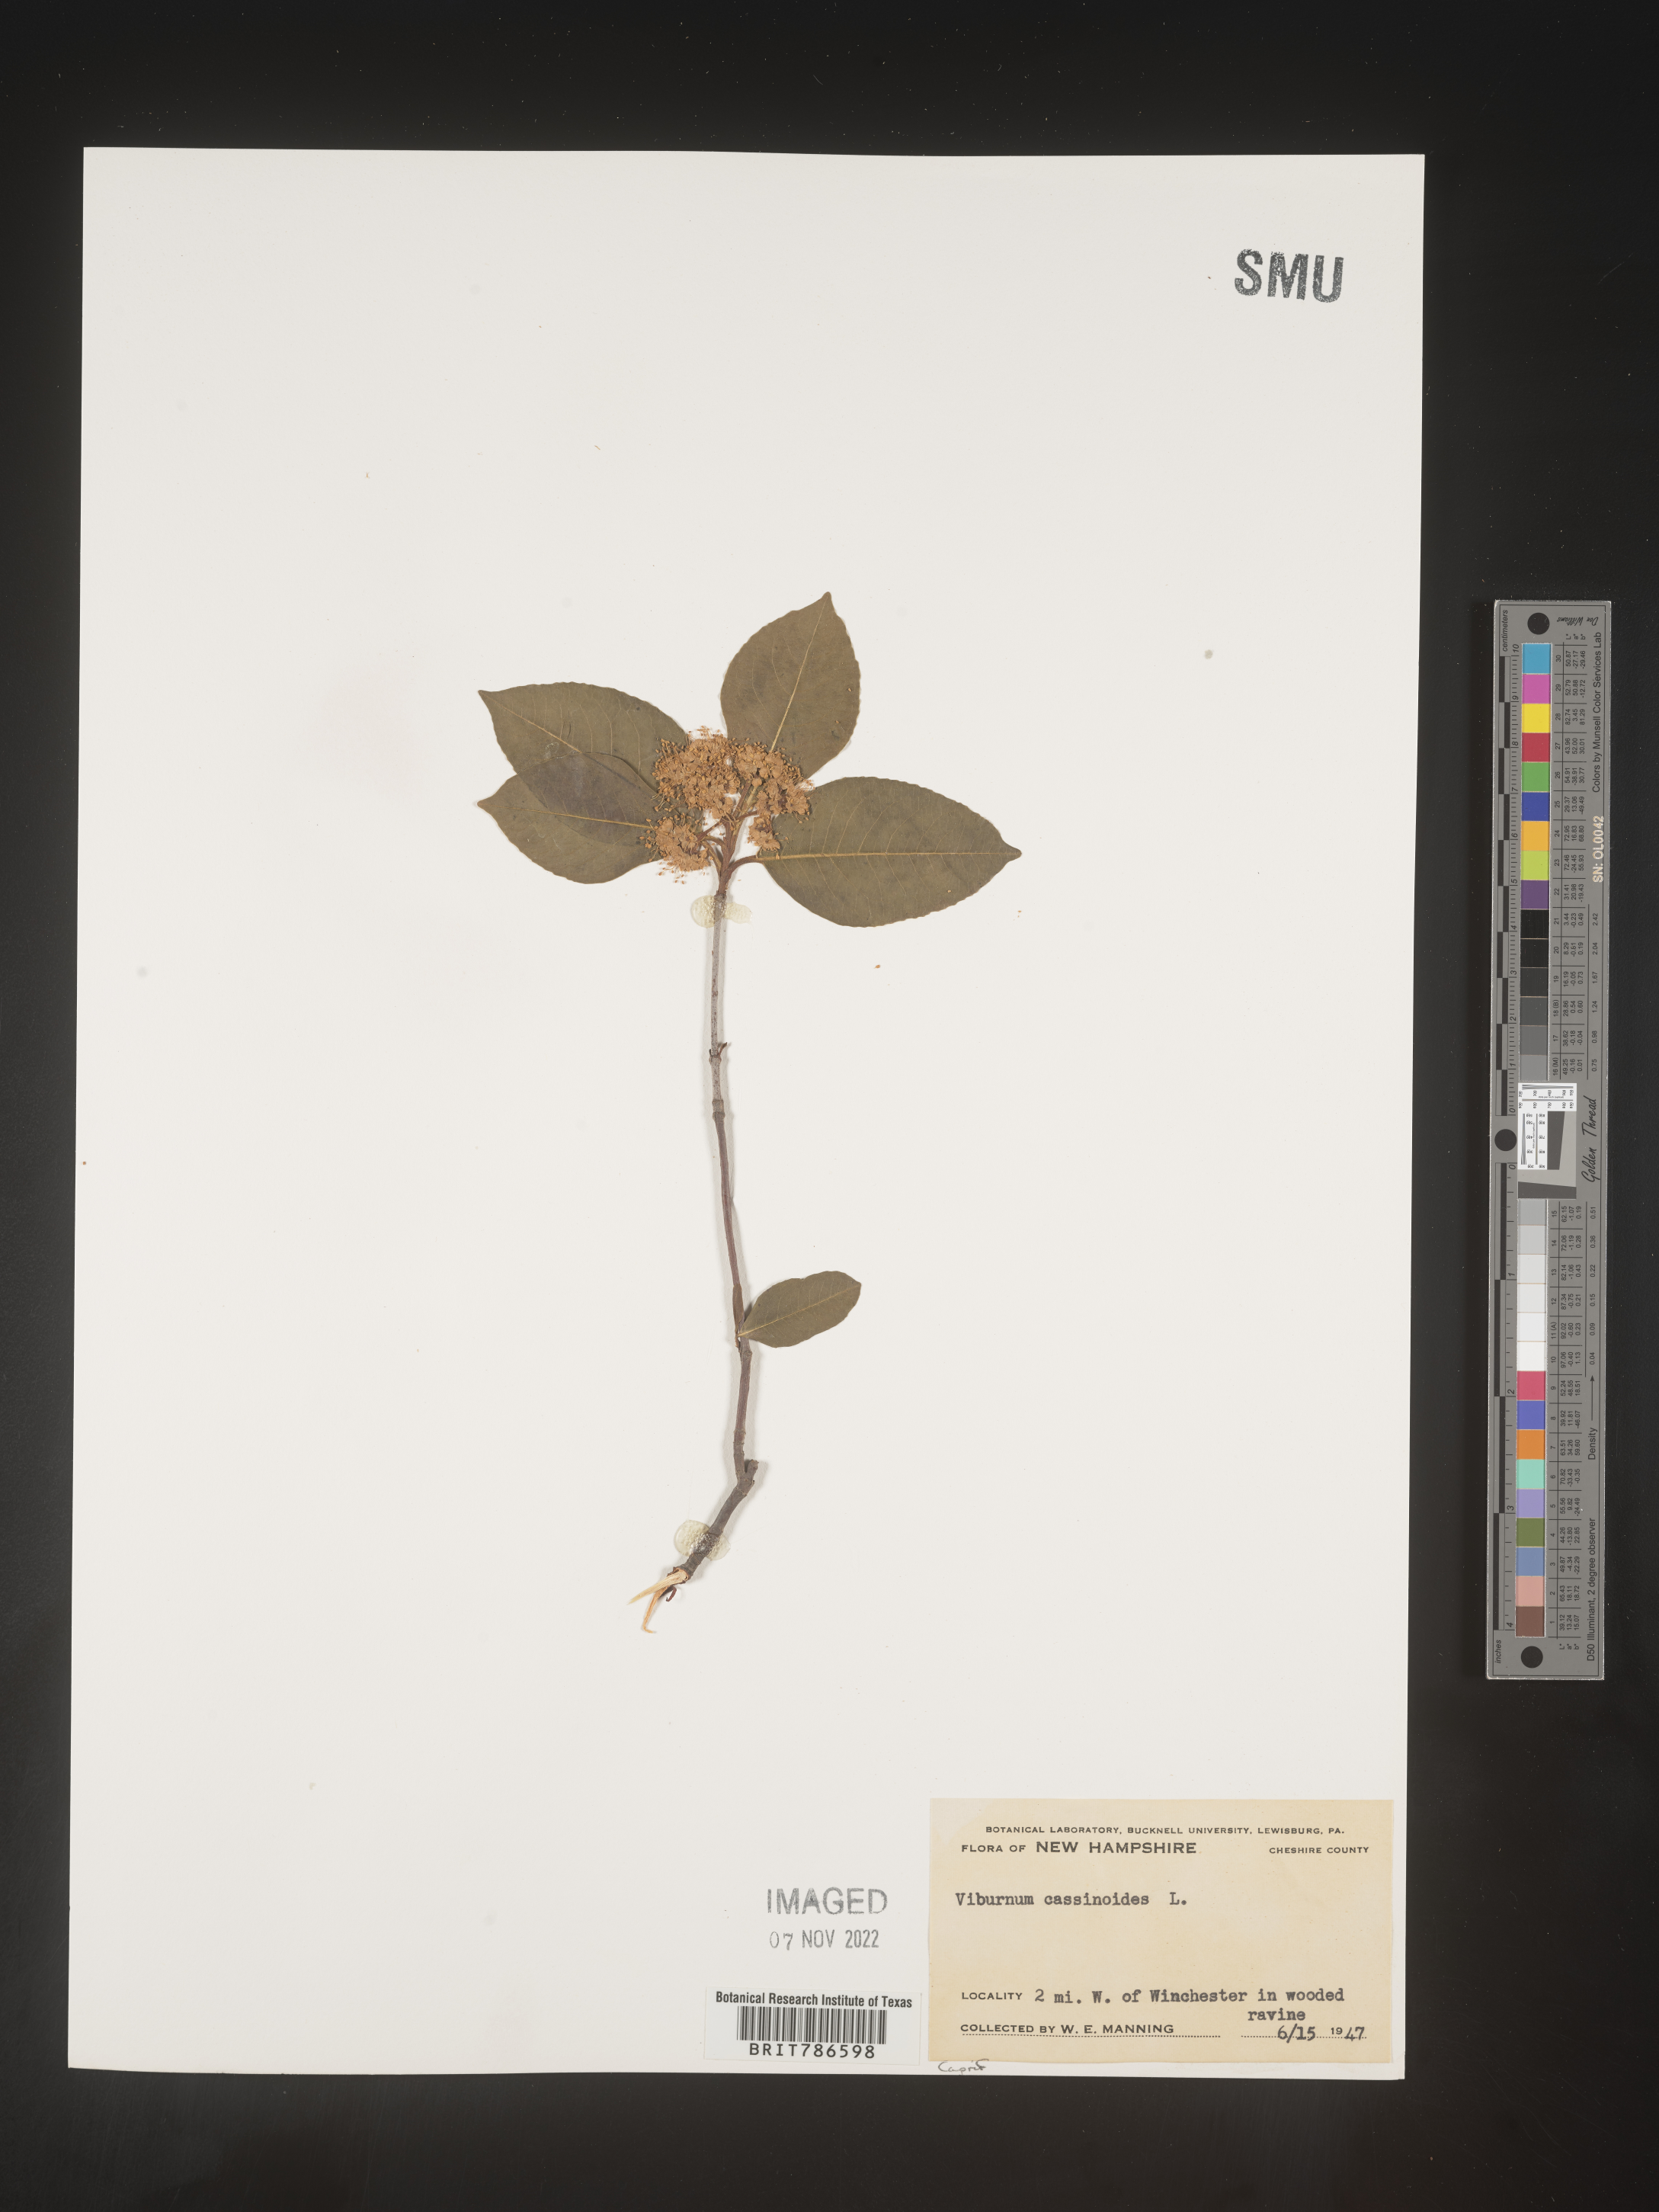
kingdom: Plantae
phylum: Tracheophyta
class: Magnoliopsida
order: Dipsacales
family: Viburnaceae
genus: Viburnum
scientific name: Viburnum cassinoides
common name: Swamp haw
